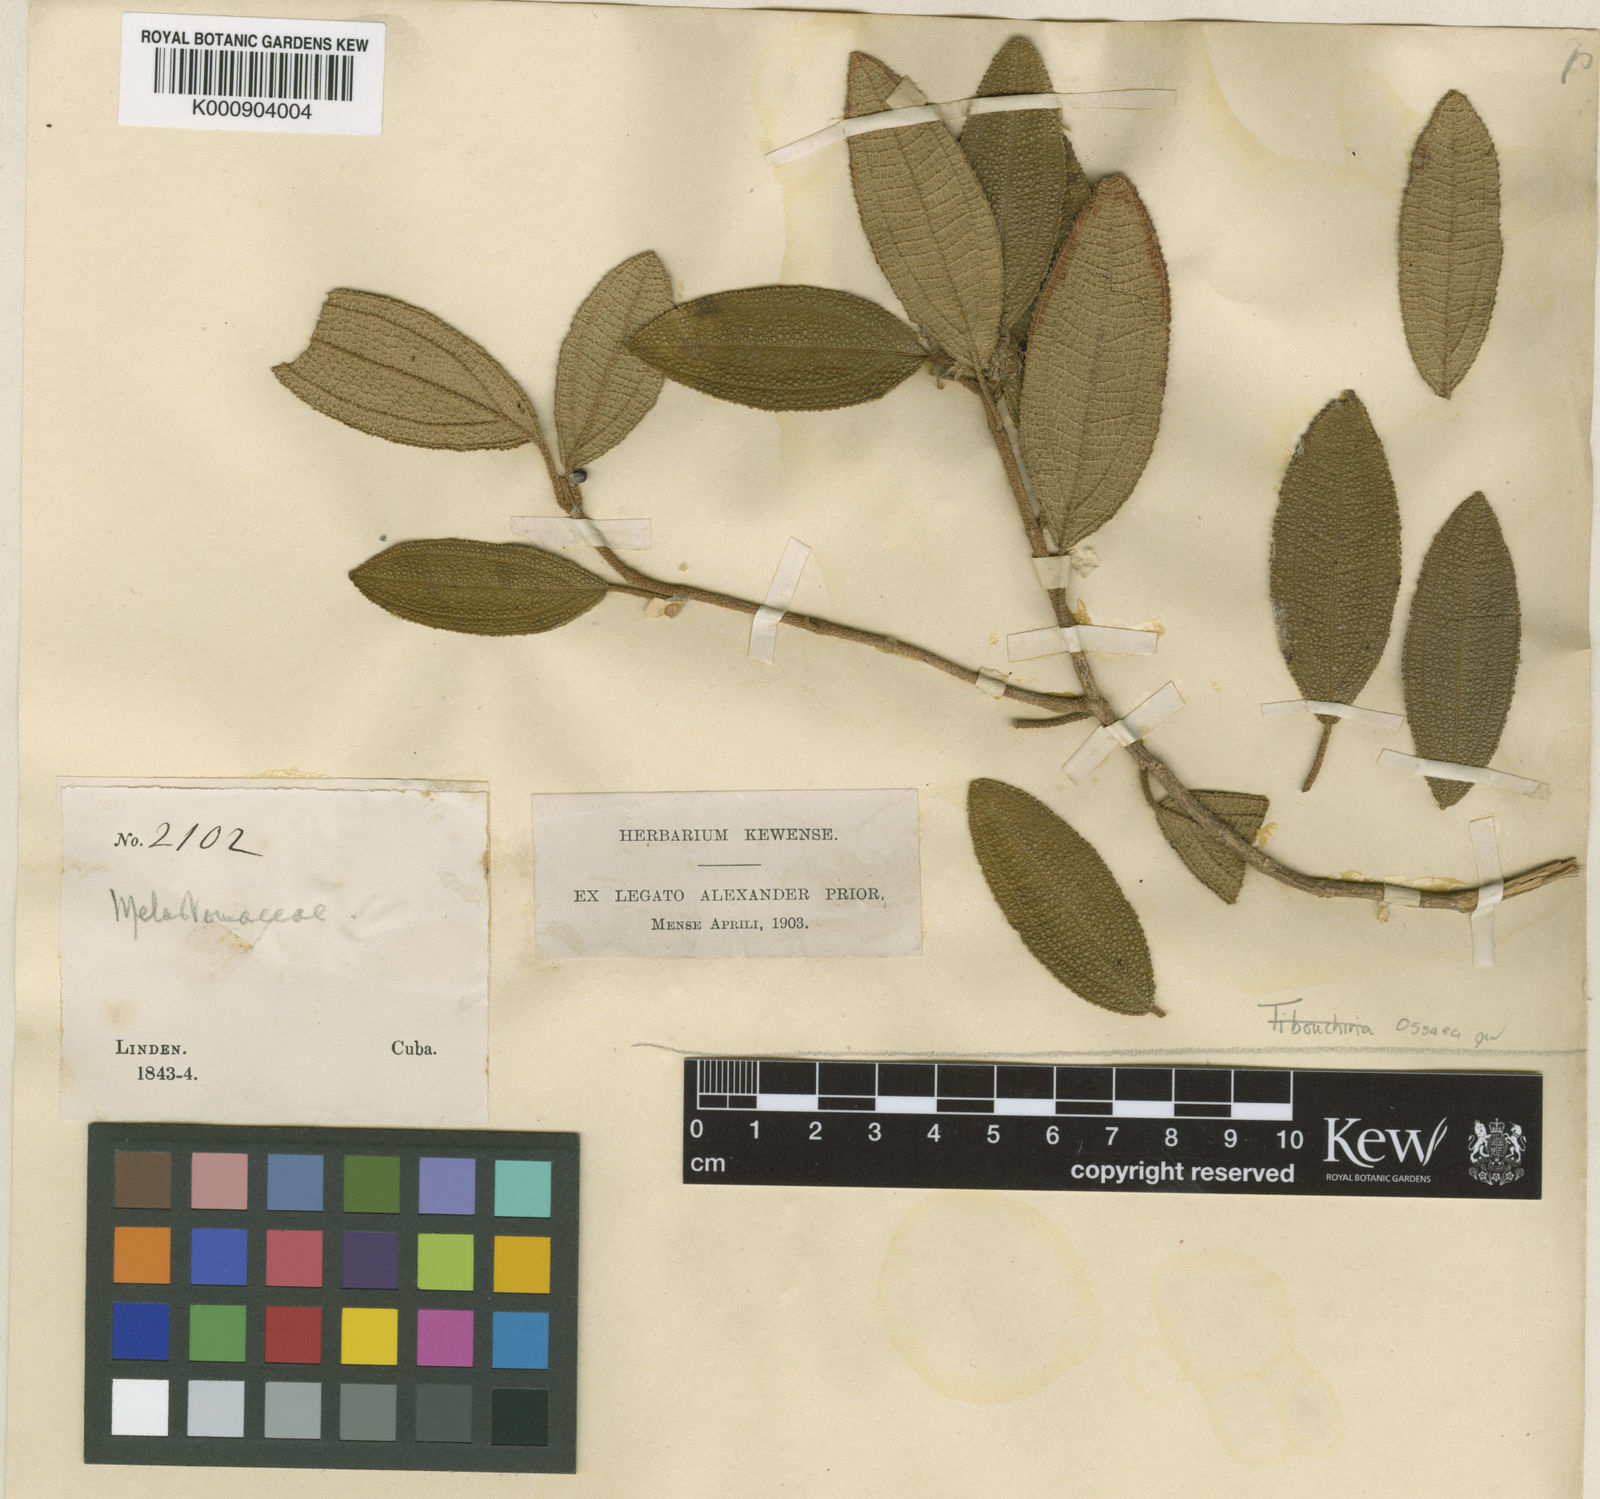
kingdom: Plantae
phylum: Tracheophyta
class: Magnoliopsida
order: Myrtales
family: Melastomataceae
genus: Miconia
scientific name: Miconia tentaculicapitata
